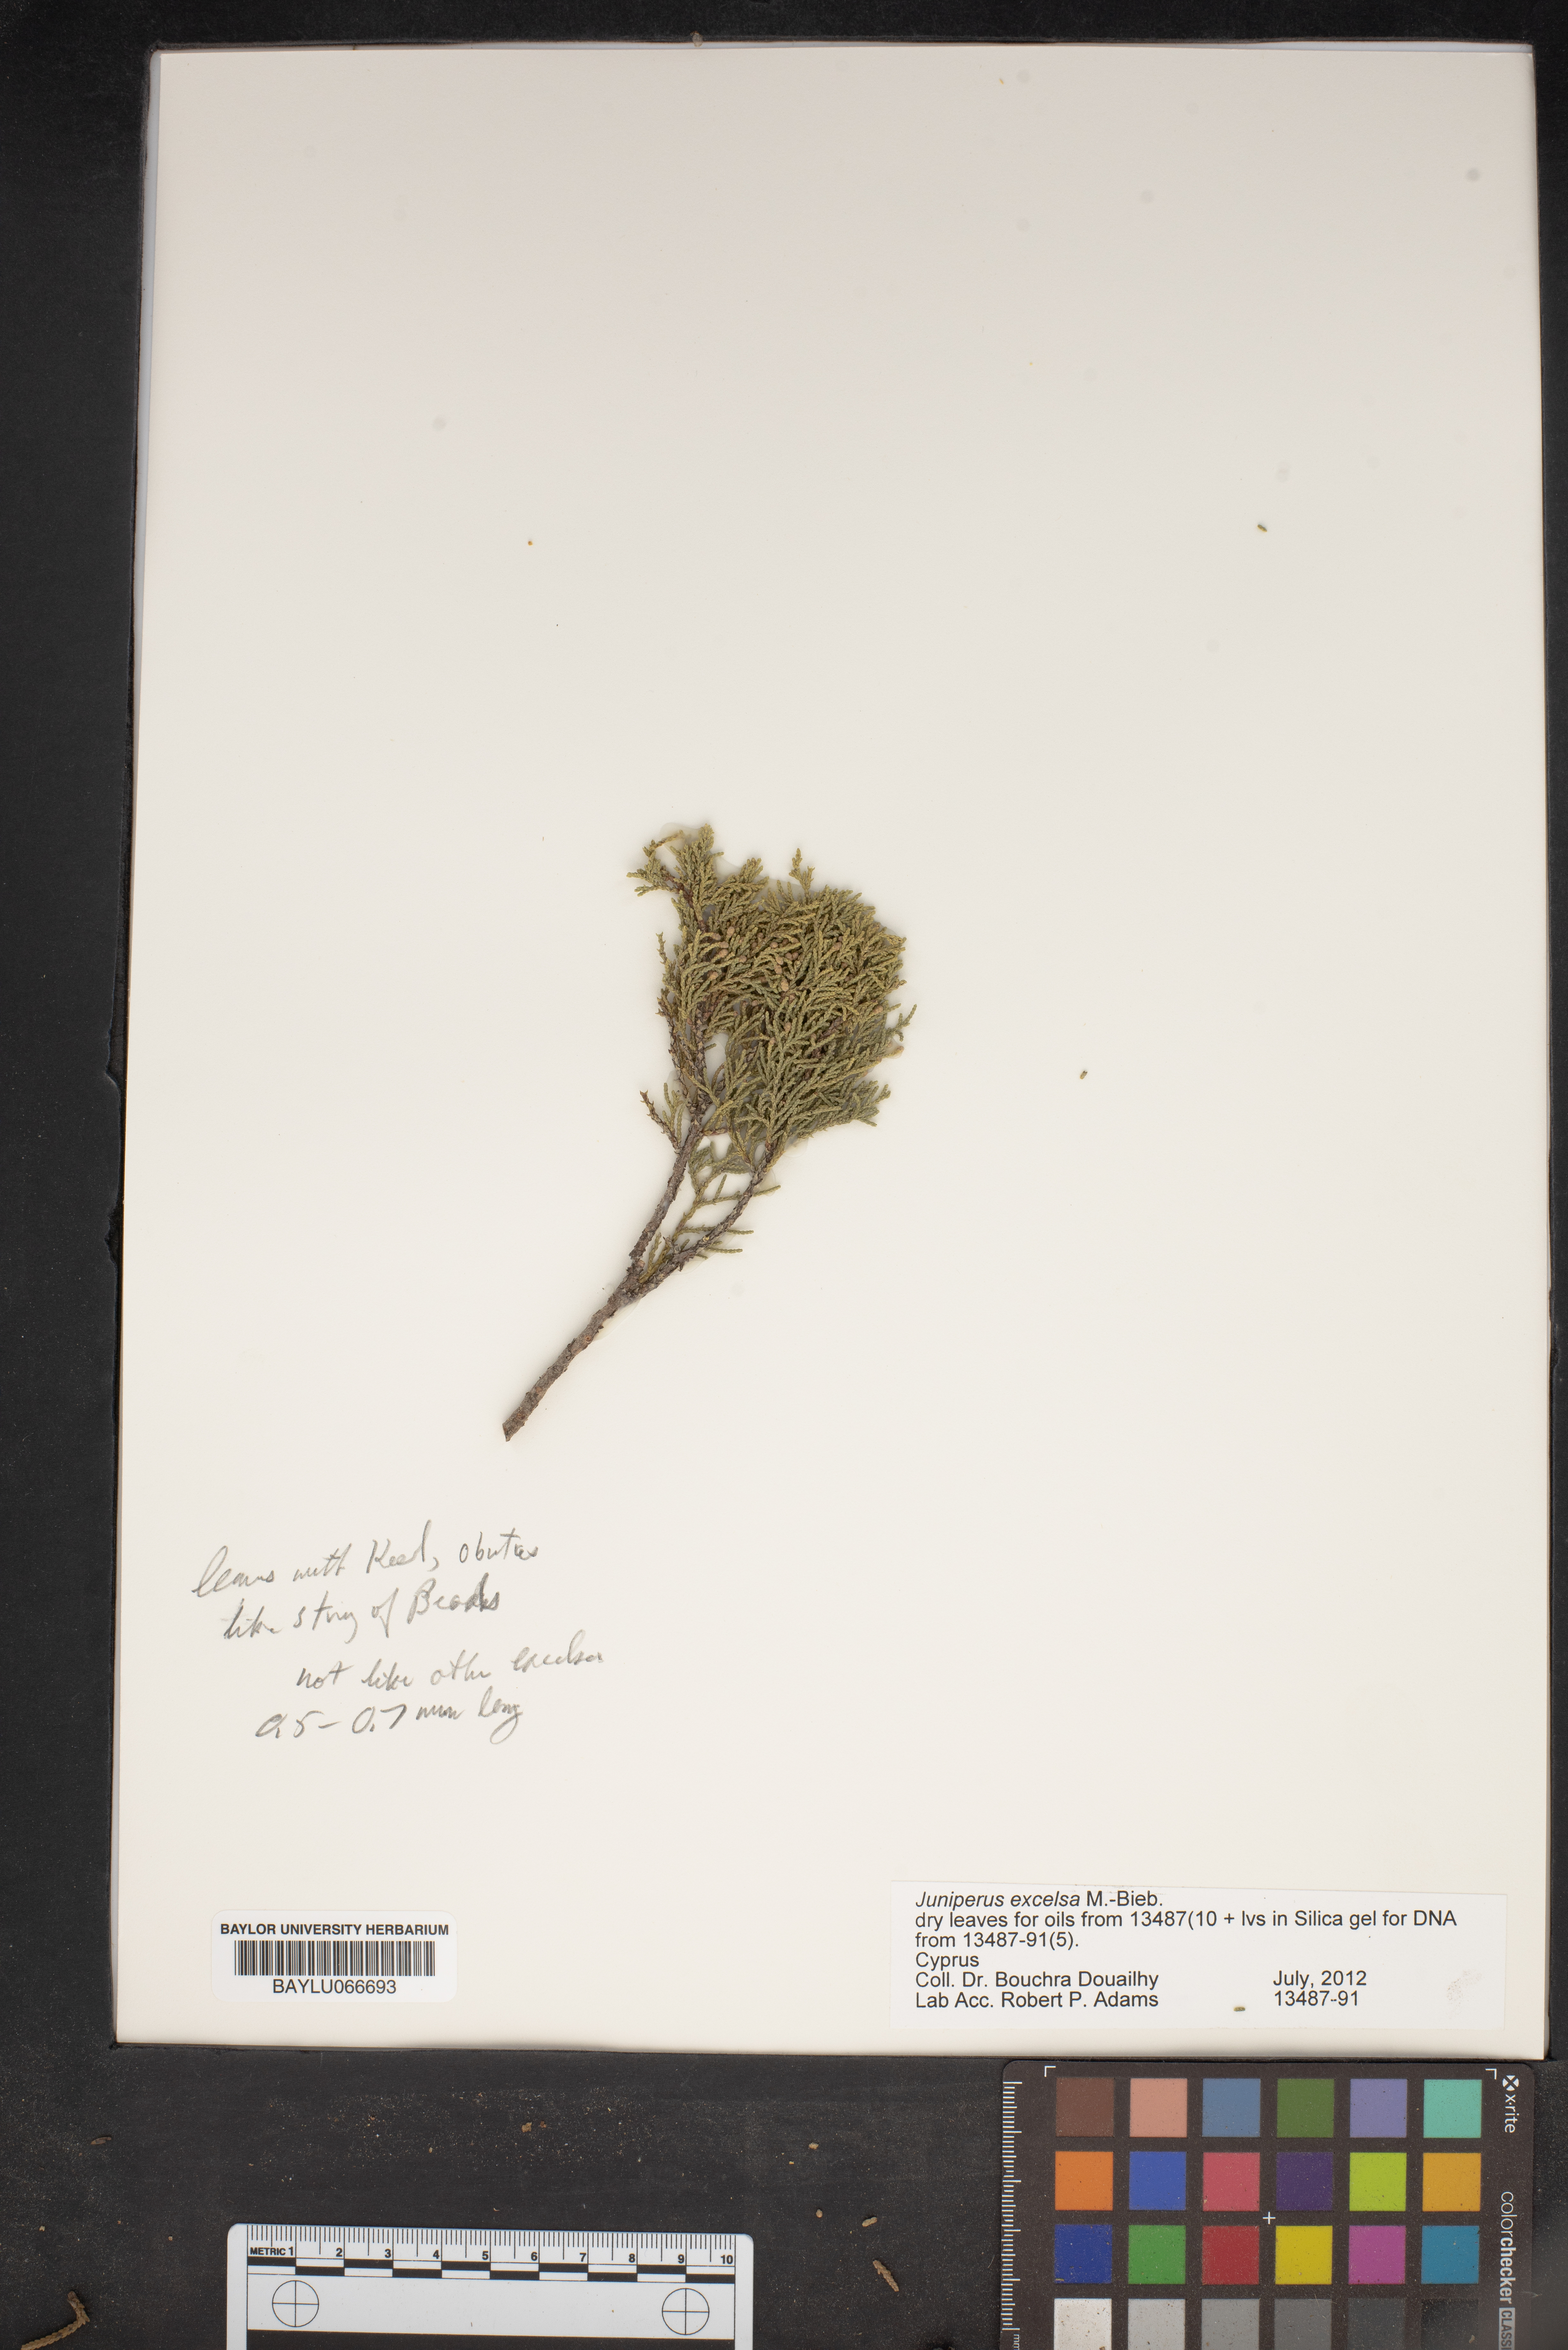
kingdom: Plantae
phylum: Tracheophyta
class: Pinopsida
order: Pinales
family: Cupressaceae
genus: Juniperus
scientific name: Juniperus excelsa
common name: Crimean juniper
